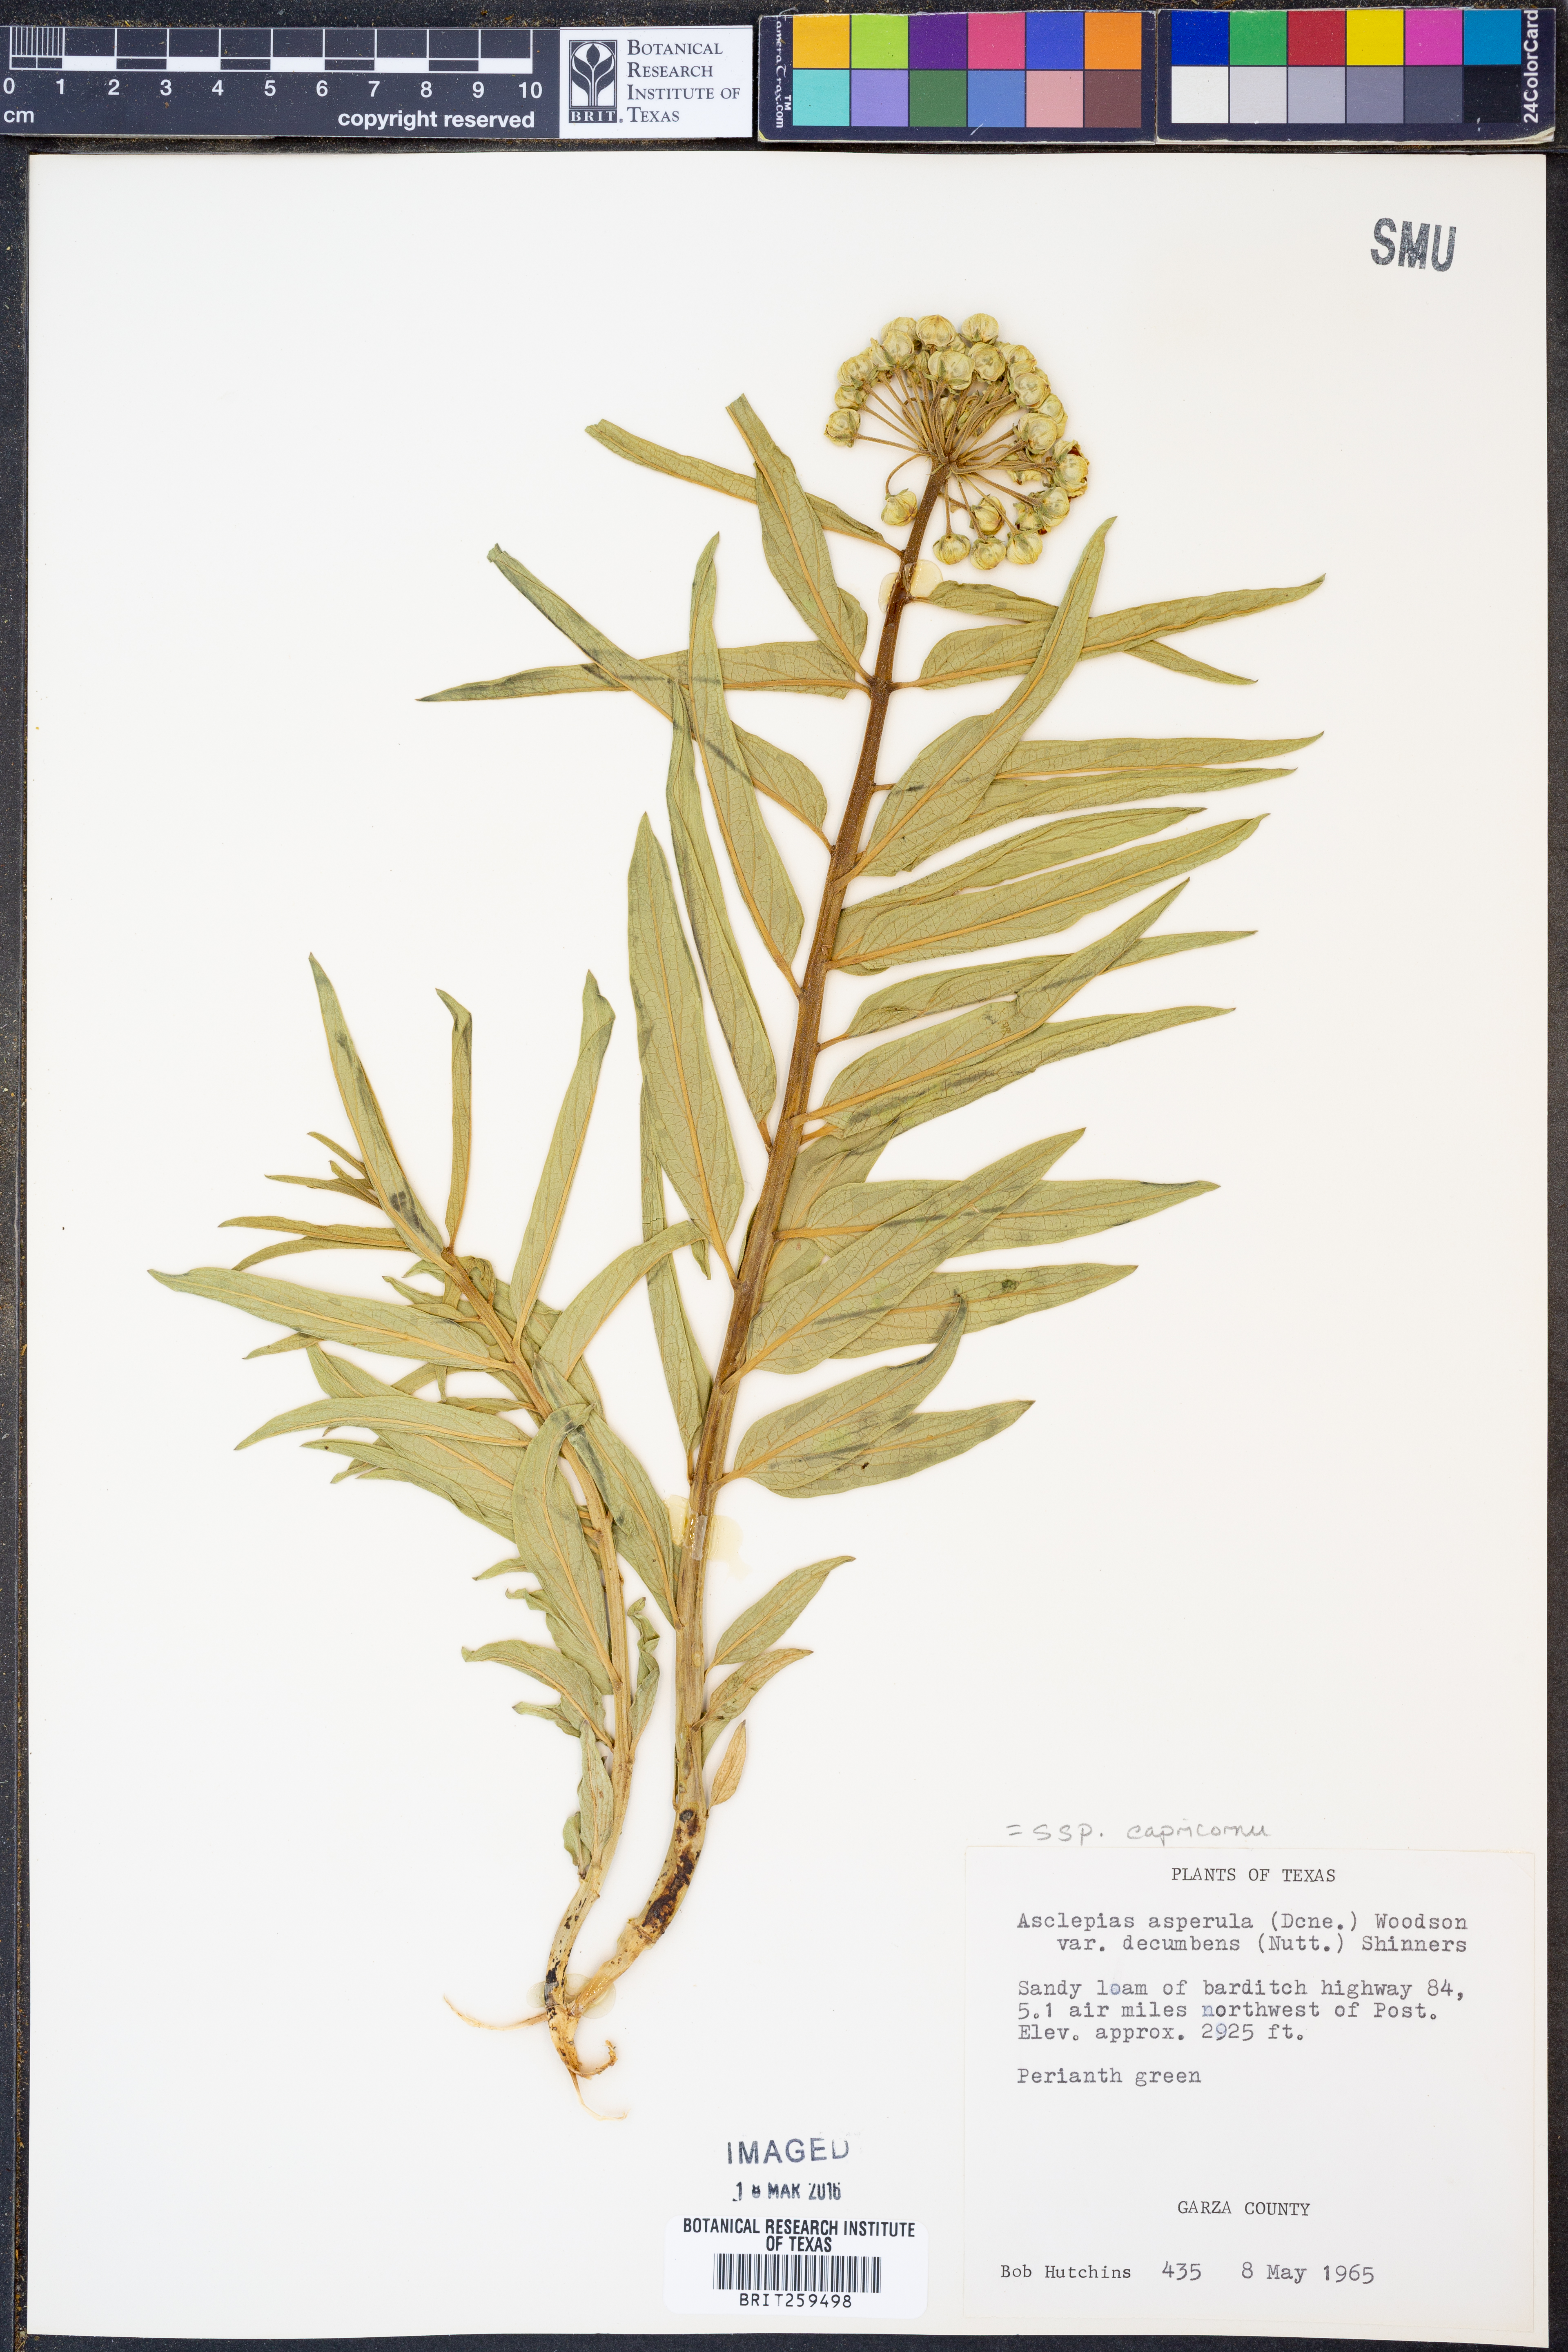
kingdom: Plantae
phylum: Tracheophyta
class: Magnoliopsida
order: Gentianales
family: Apocynaceae
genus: Asclepias
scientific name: Asclepias asperula
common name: Antelope horns
